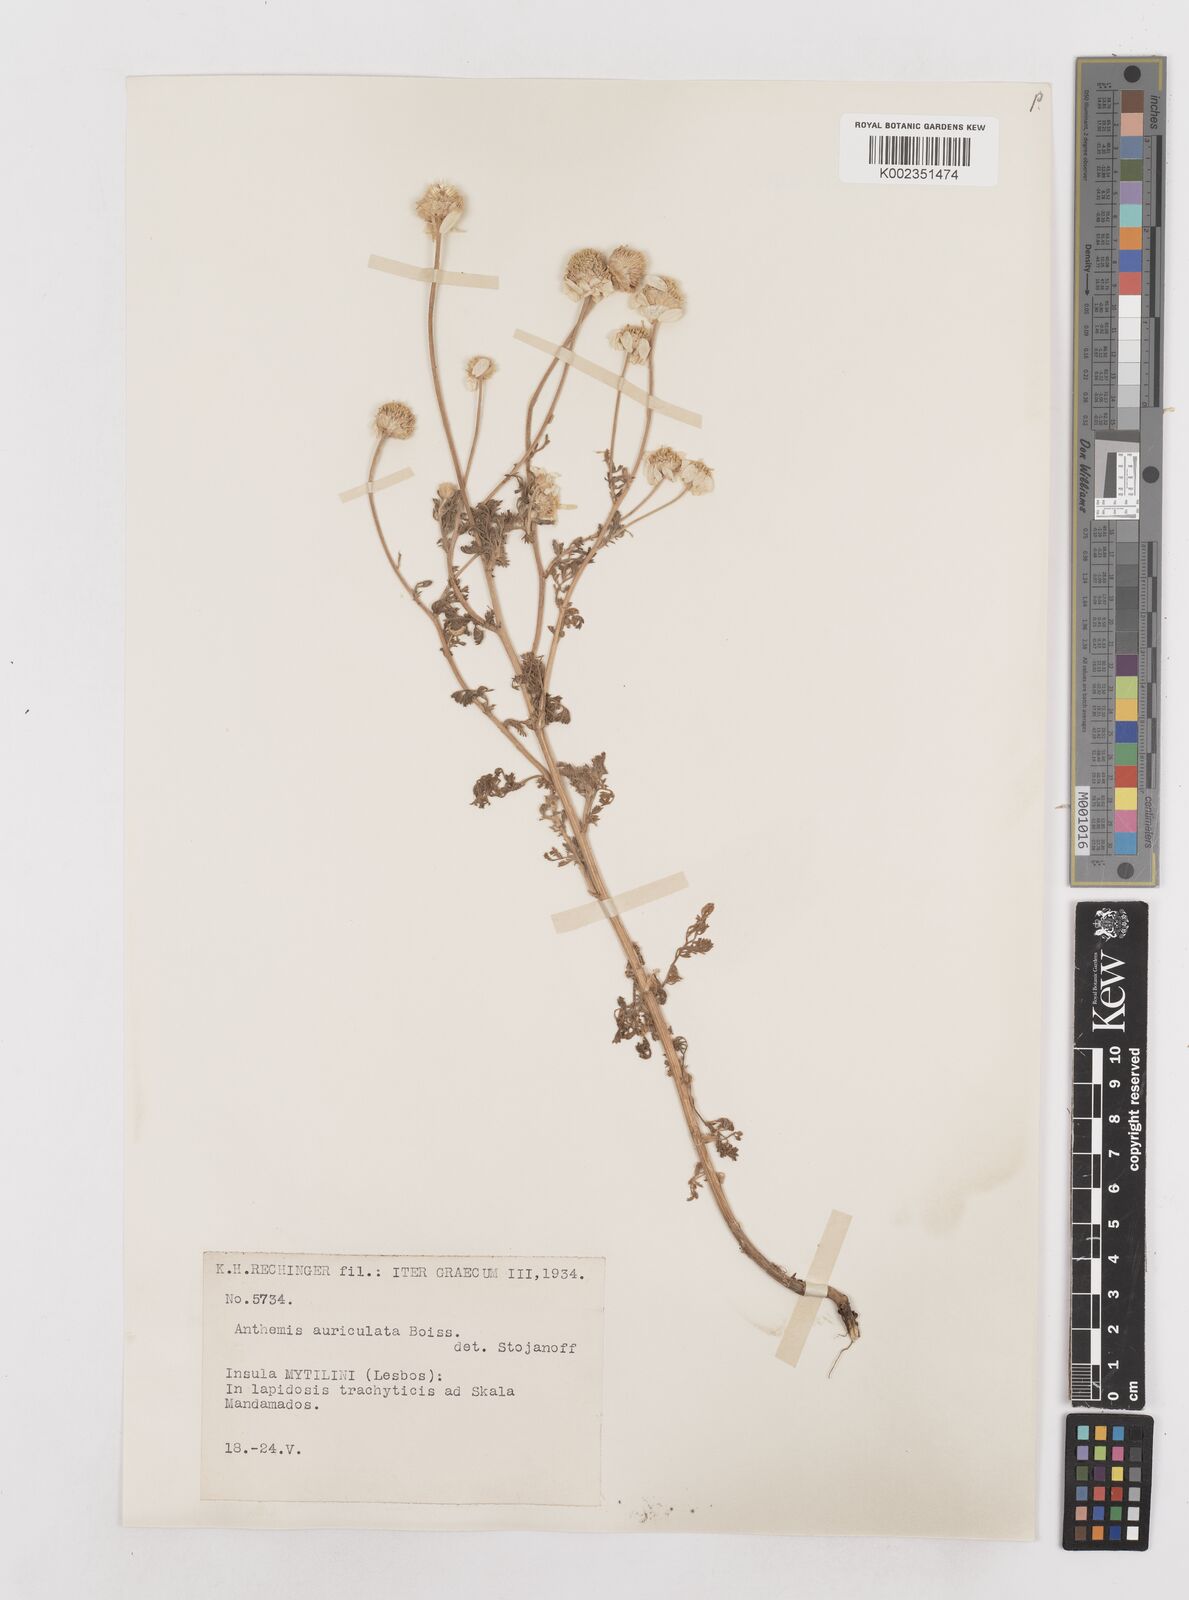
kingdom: Plantae
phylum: Tracheophyta
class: Magnoliopsida
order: Asterales
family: Asteraceae
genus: Anthemis
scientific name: Anthemis auriculata
